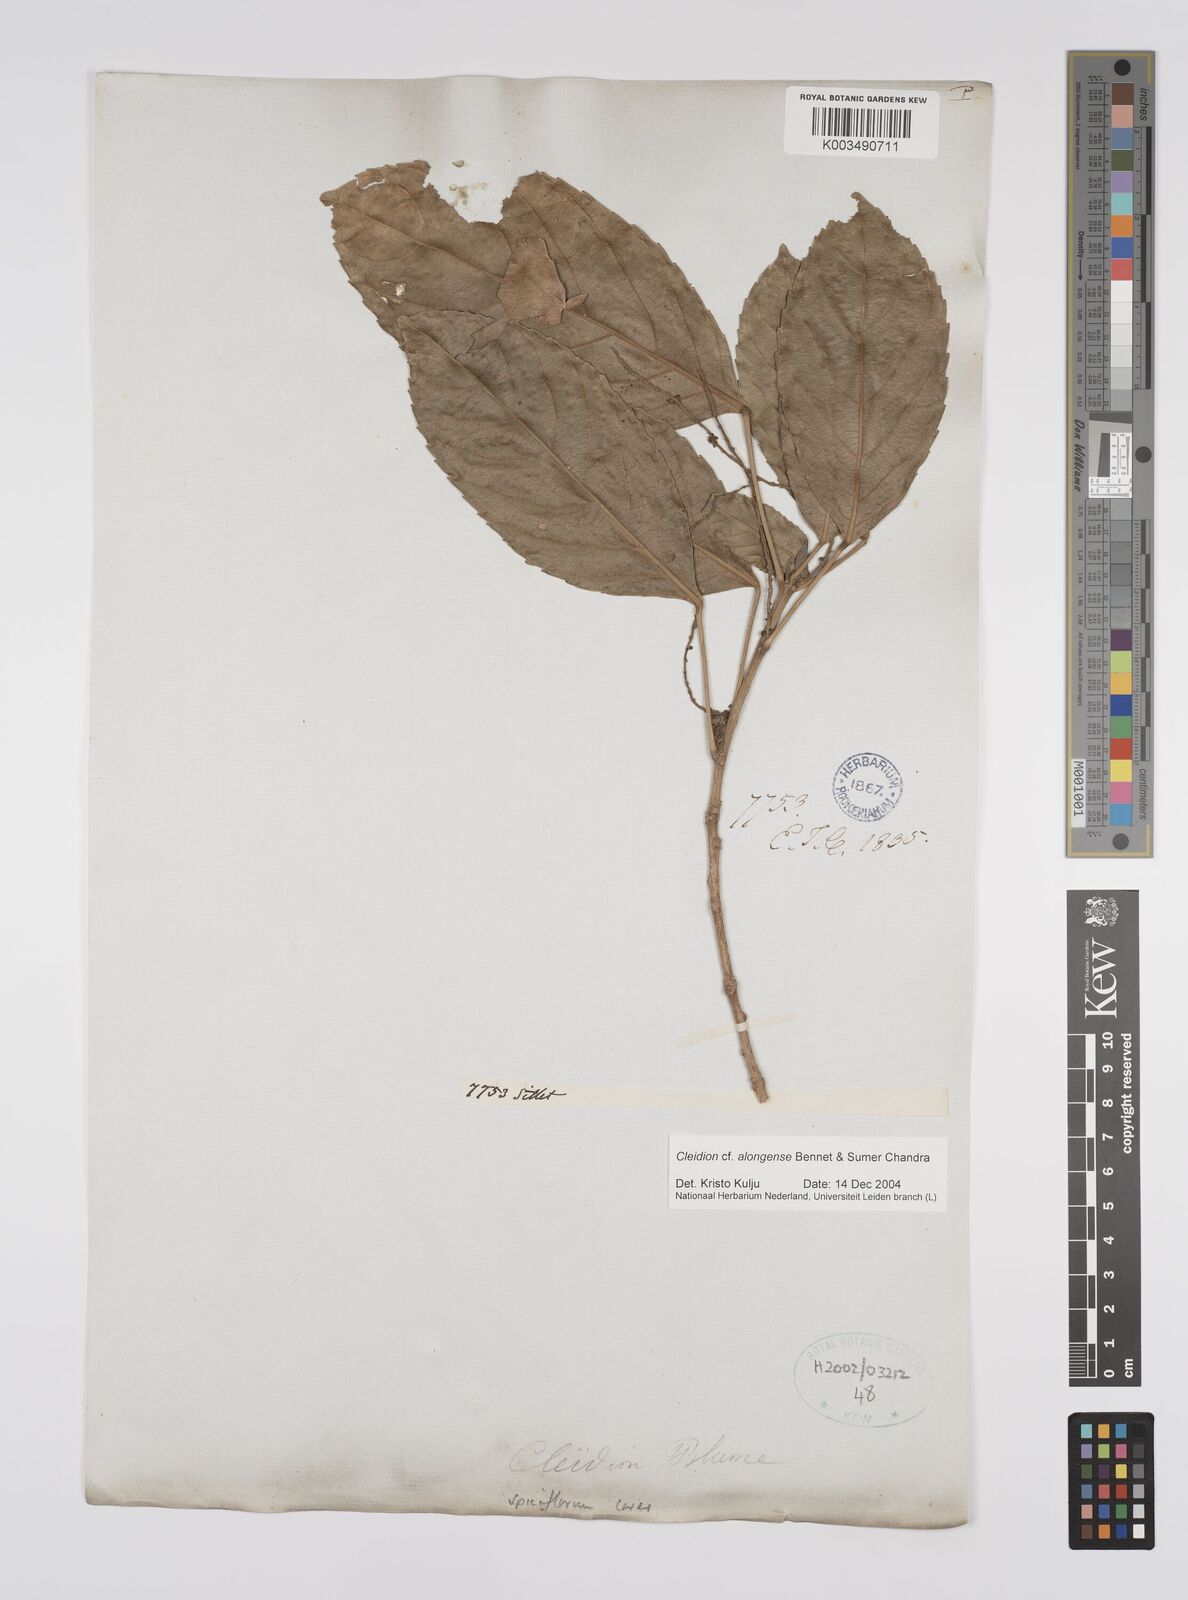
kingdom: Plantae
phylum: Tracheophyta
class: Magnoliopsida
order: Malpighiales
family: Euphorbiaceae
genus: Cleidion
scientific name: Cleidion javanicum
